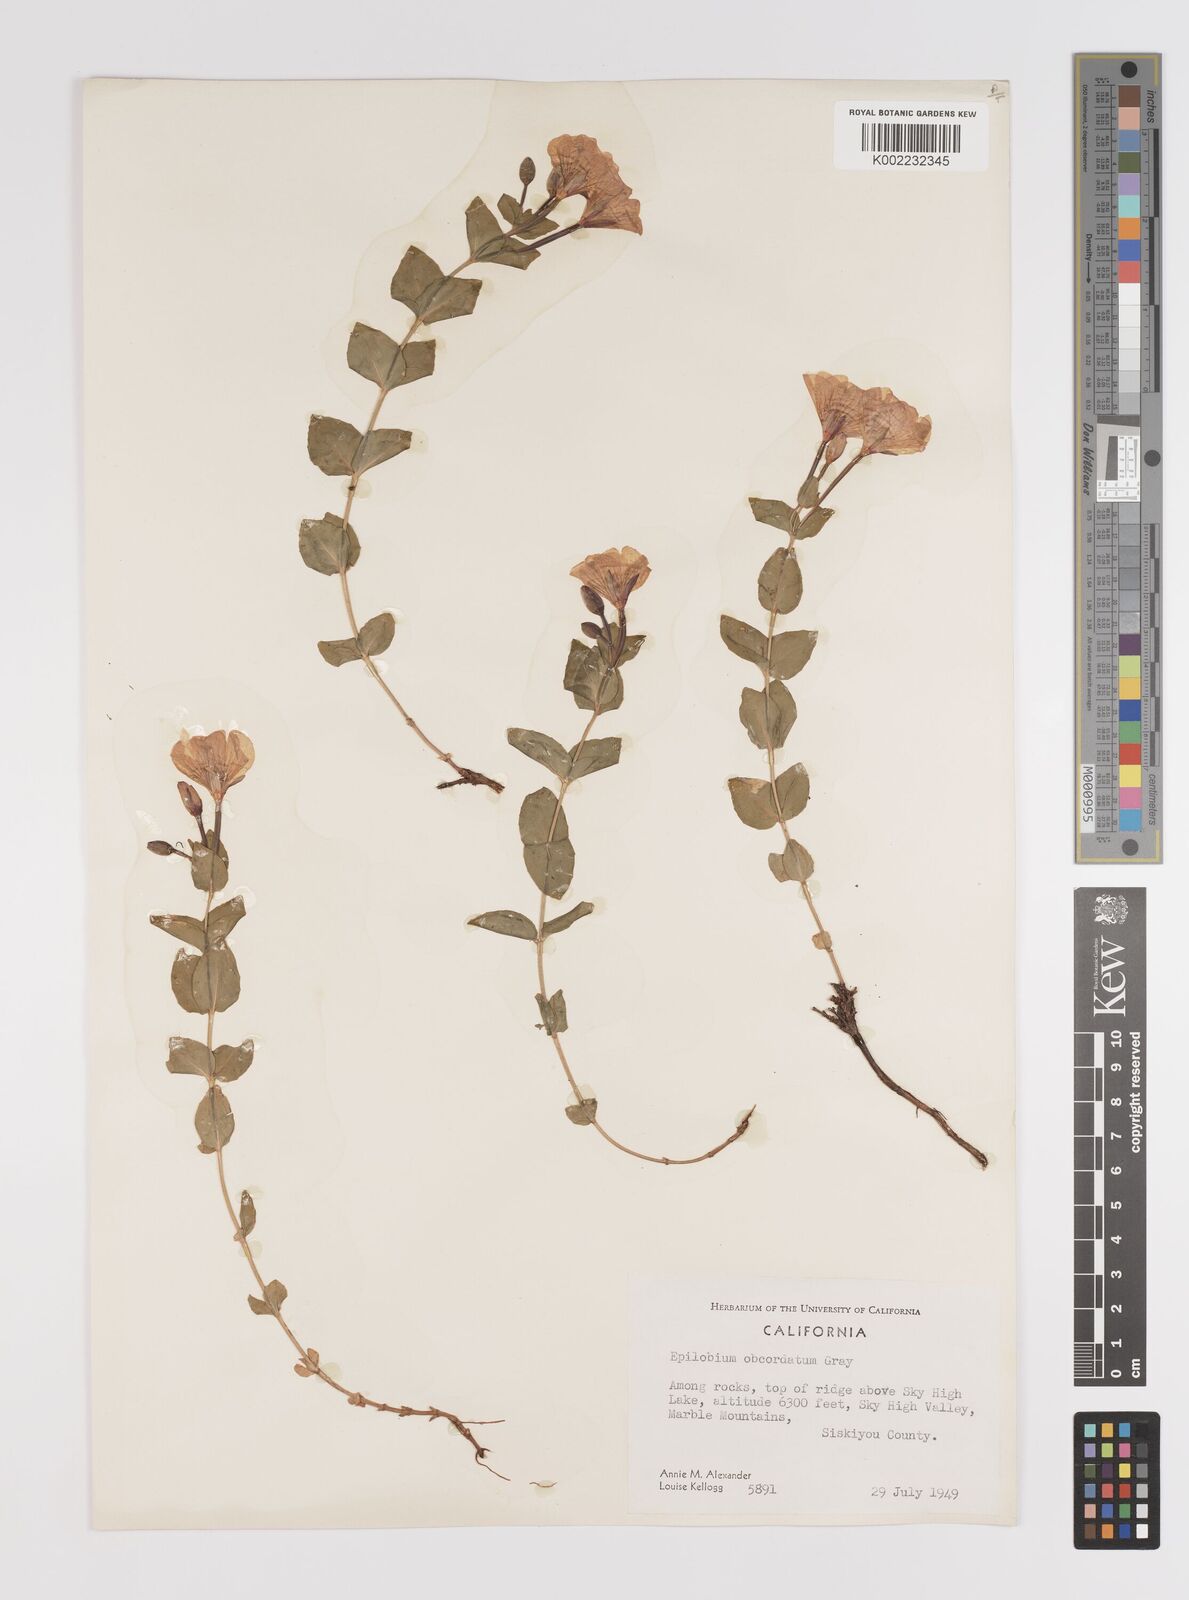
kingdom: Plantae
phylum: Tracheophyta
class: Magnoliopsida
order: Myrtales
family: Onagraceae
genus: Epilobium
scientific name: Epilobium obcordatum
